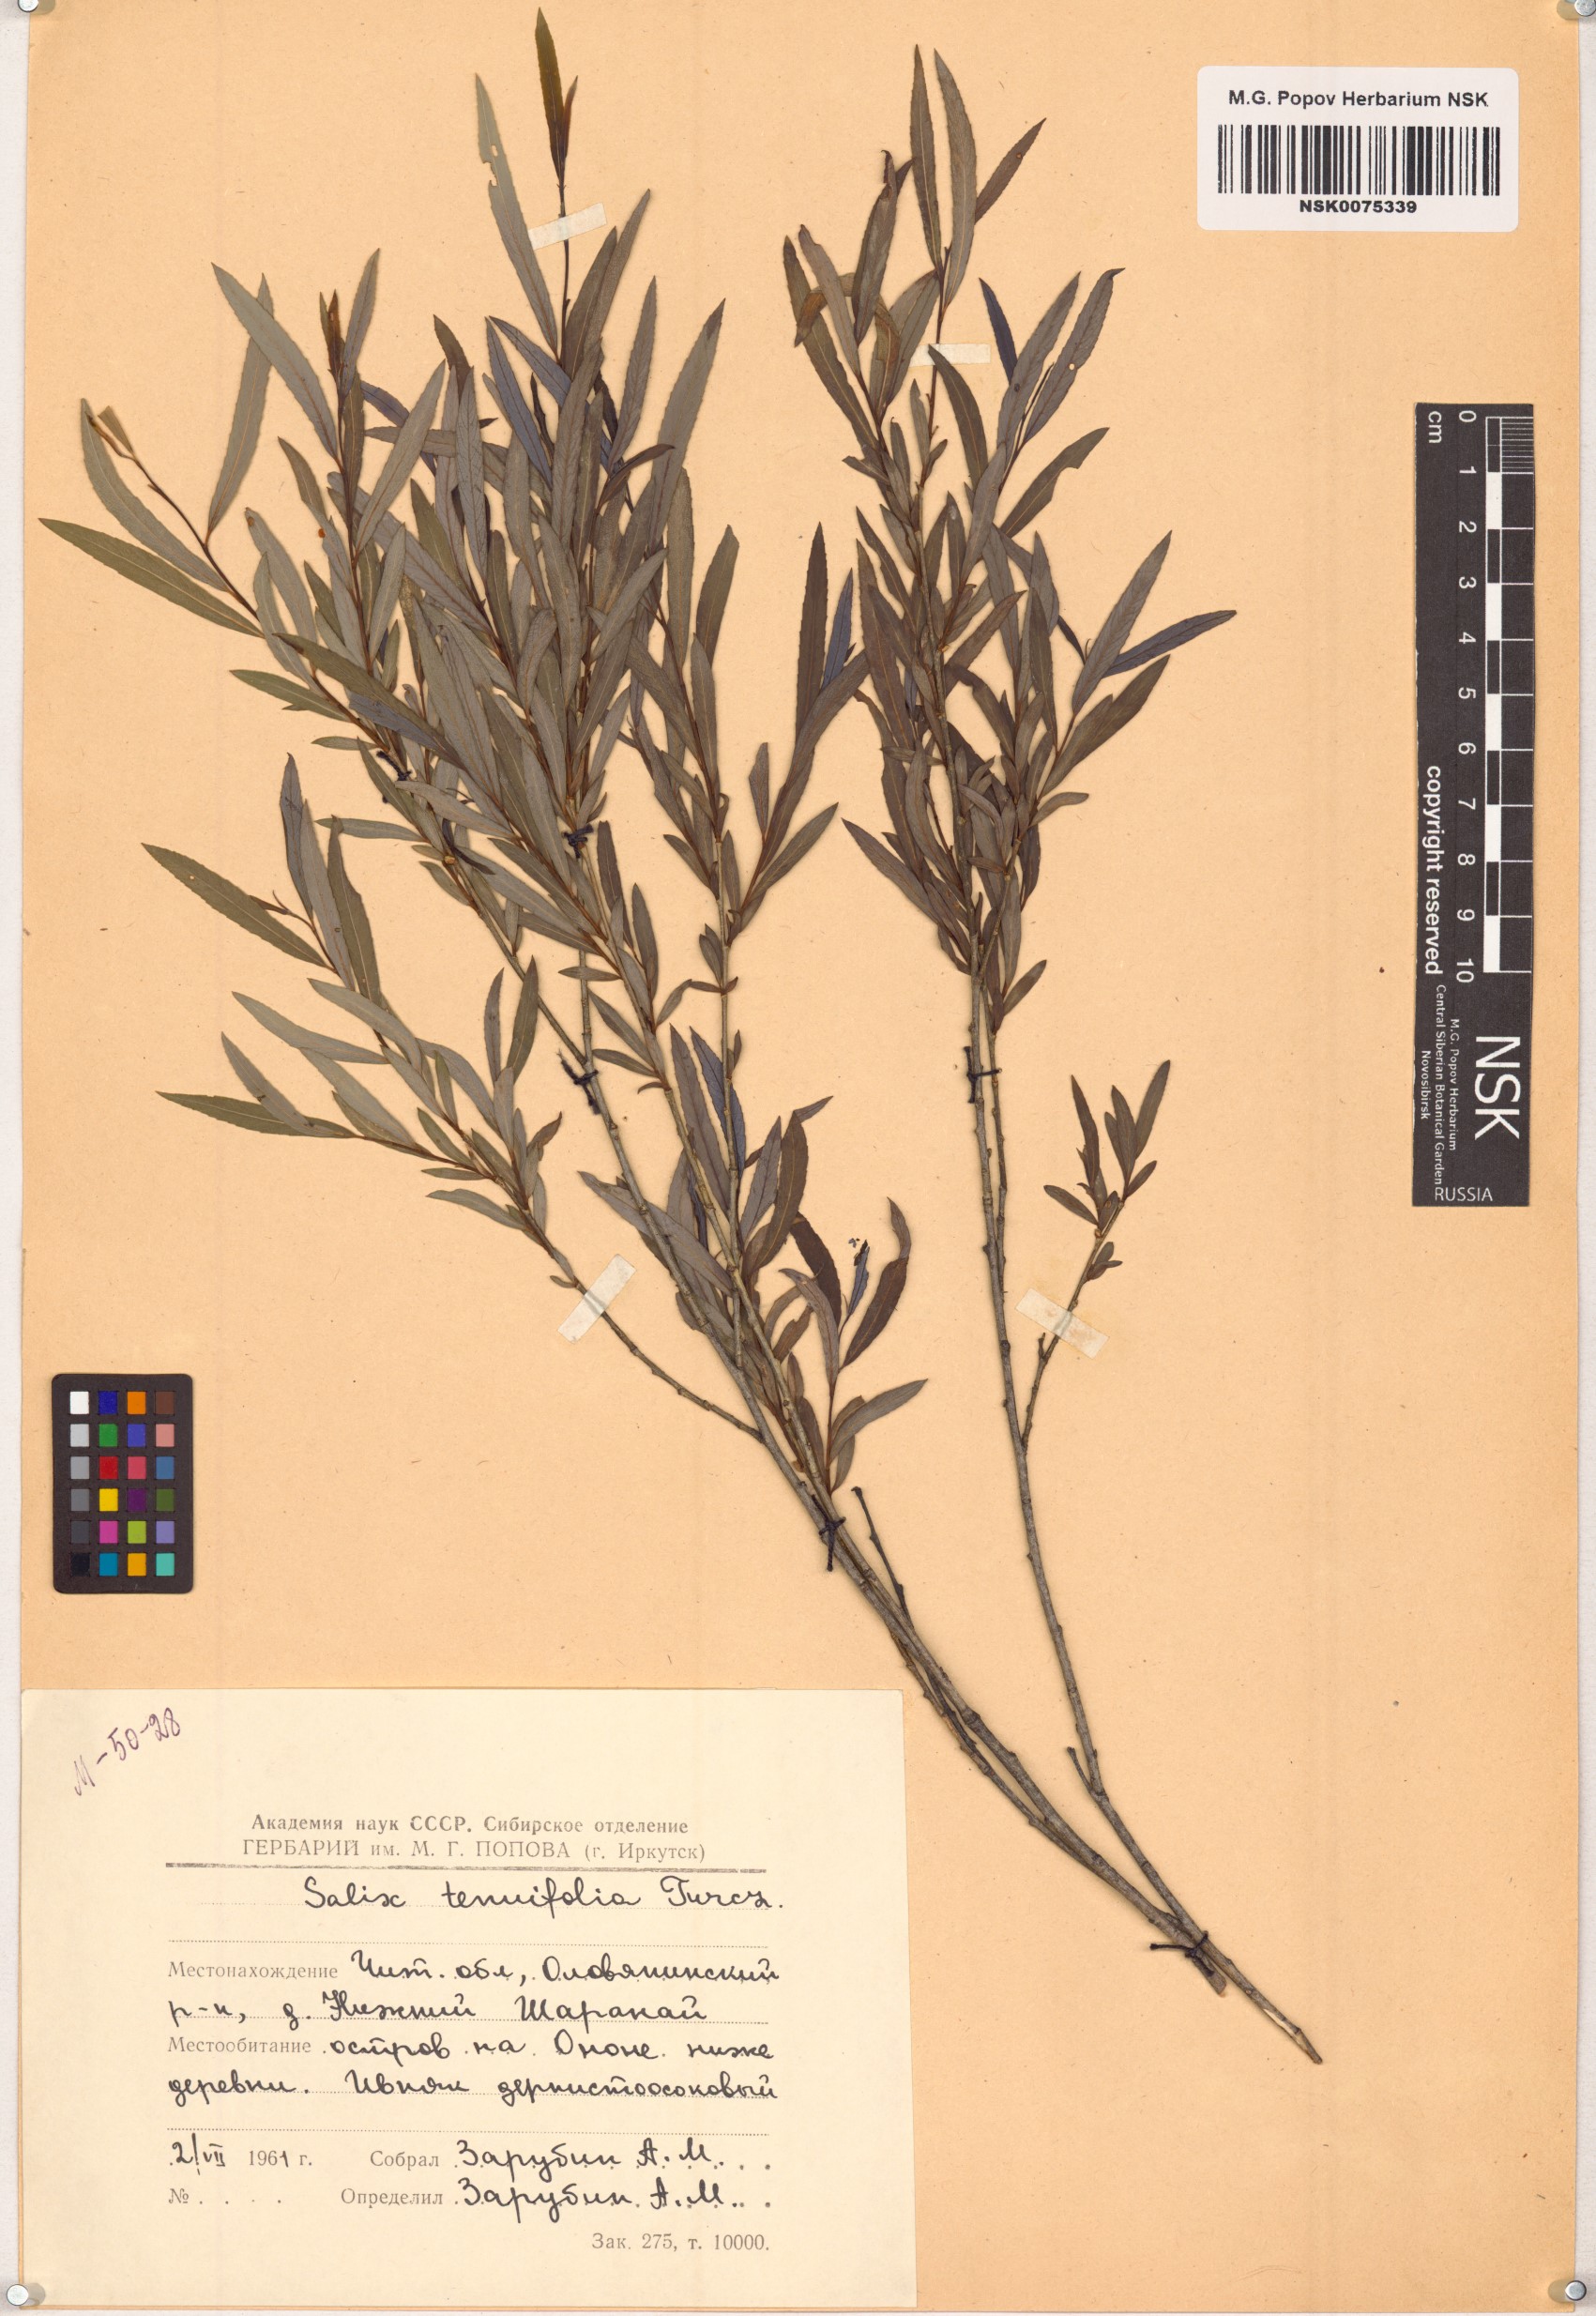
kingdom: Plantae
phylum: Tracheophyta
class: Magnoliopsida
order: Malpighiales
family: Salicaceae
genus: Salix
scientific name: Salix
